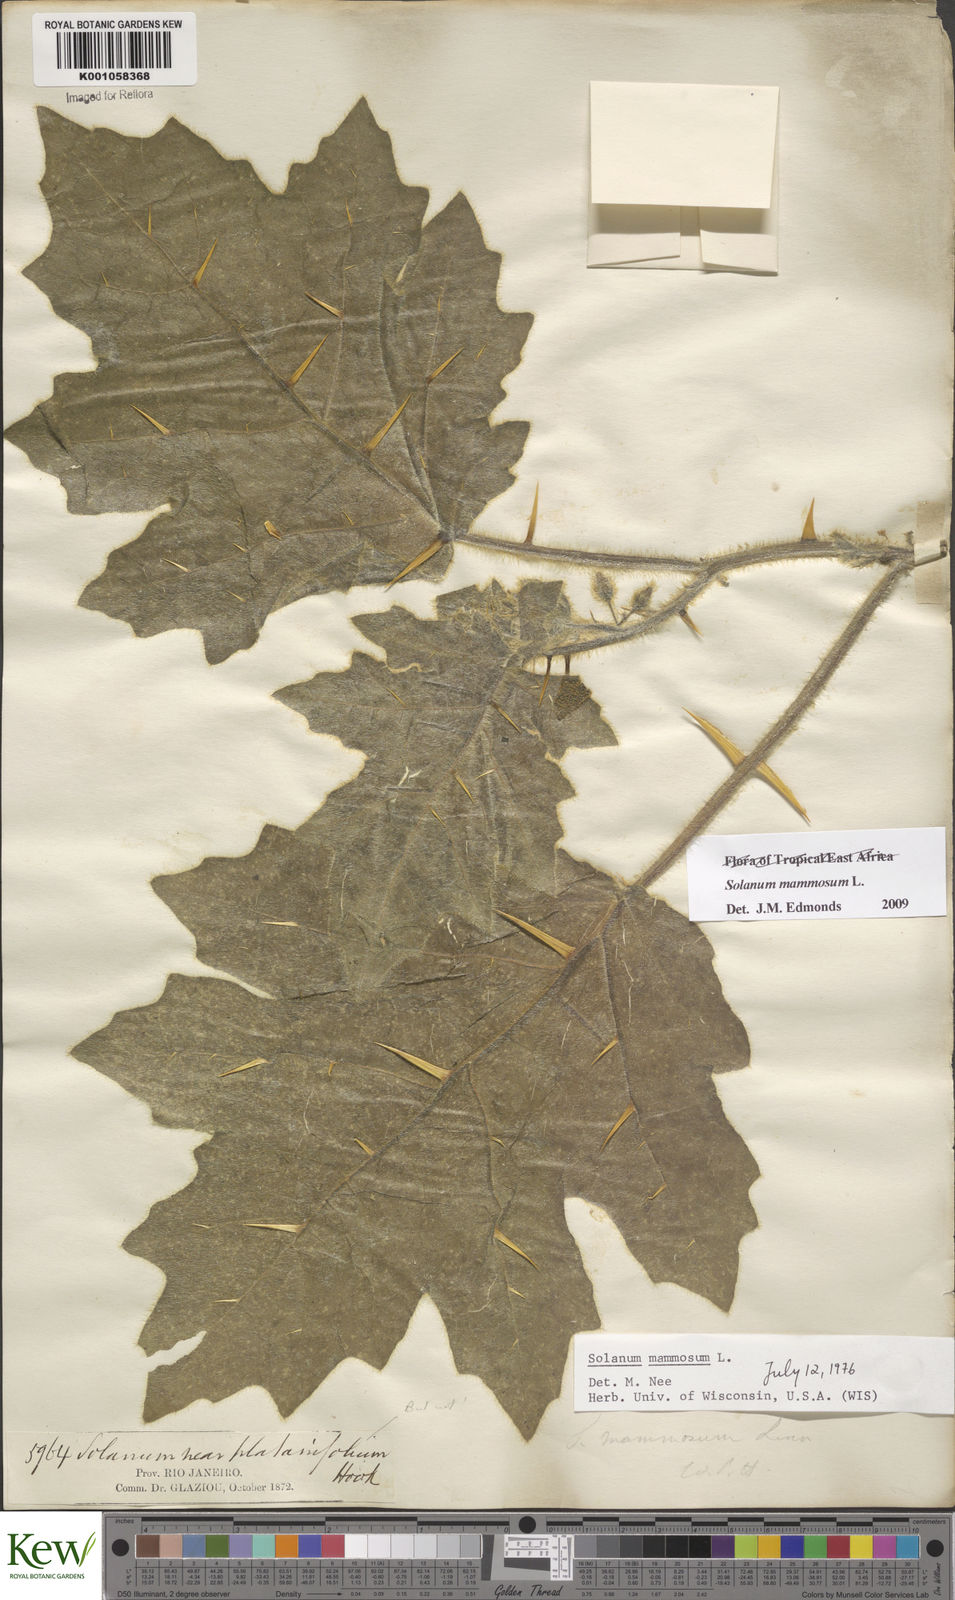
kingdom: Plantae
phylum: Tracheophyta
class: Magnoliopsida
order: Solanales
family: Solanaceae
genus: Solanum
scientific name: Solanum mammosum
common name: Nipple fruit
